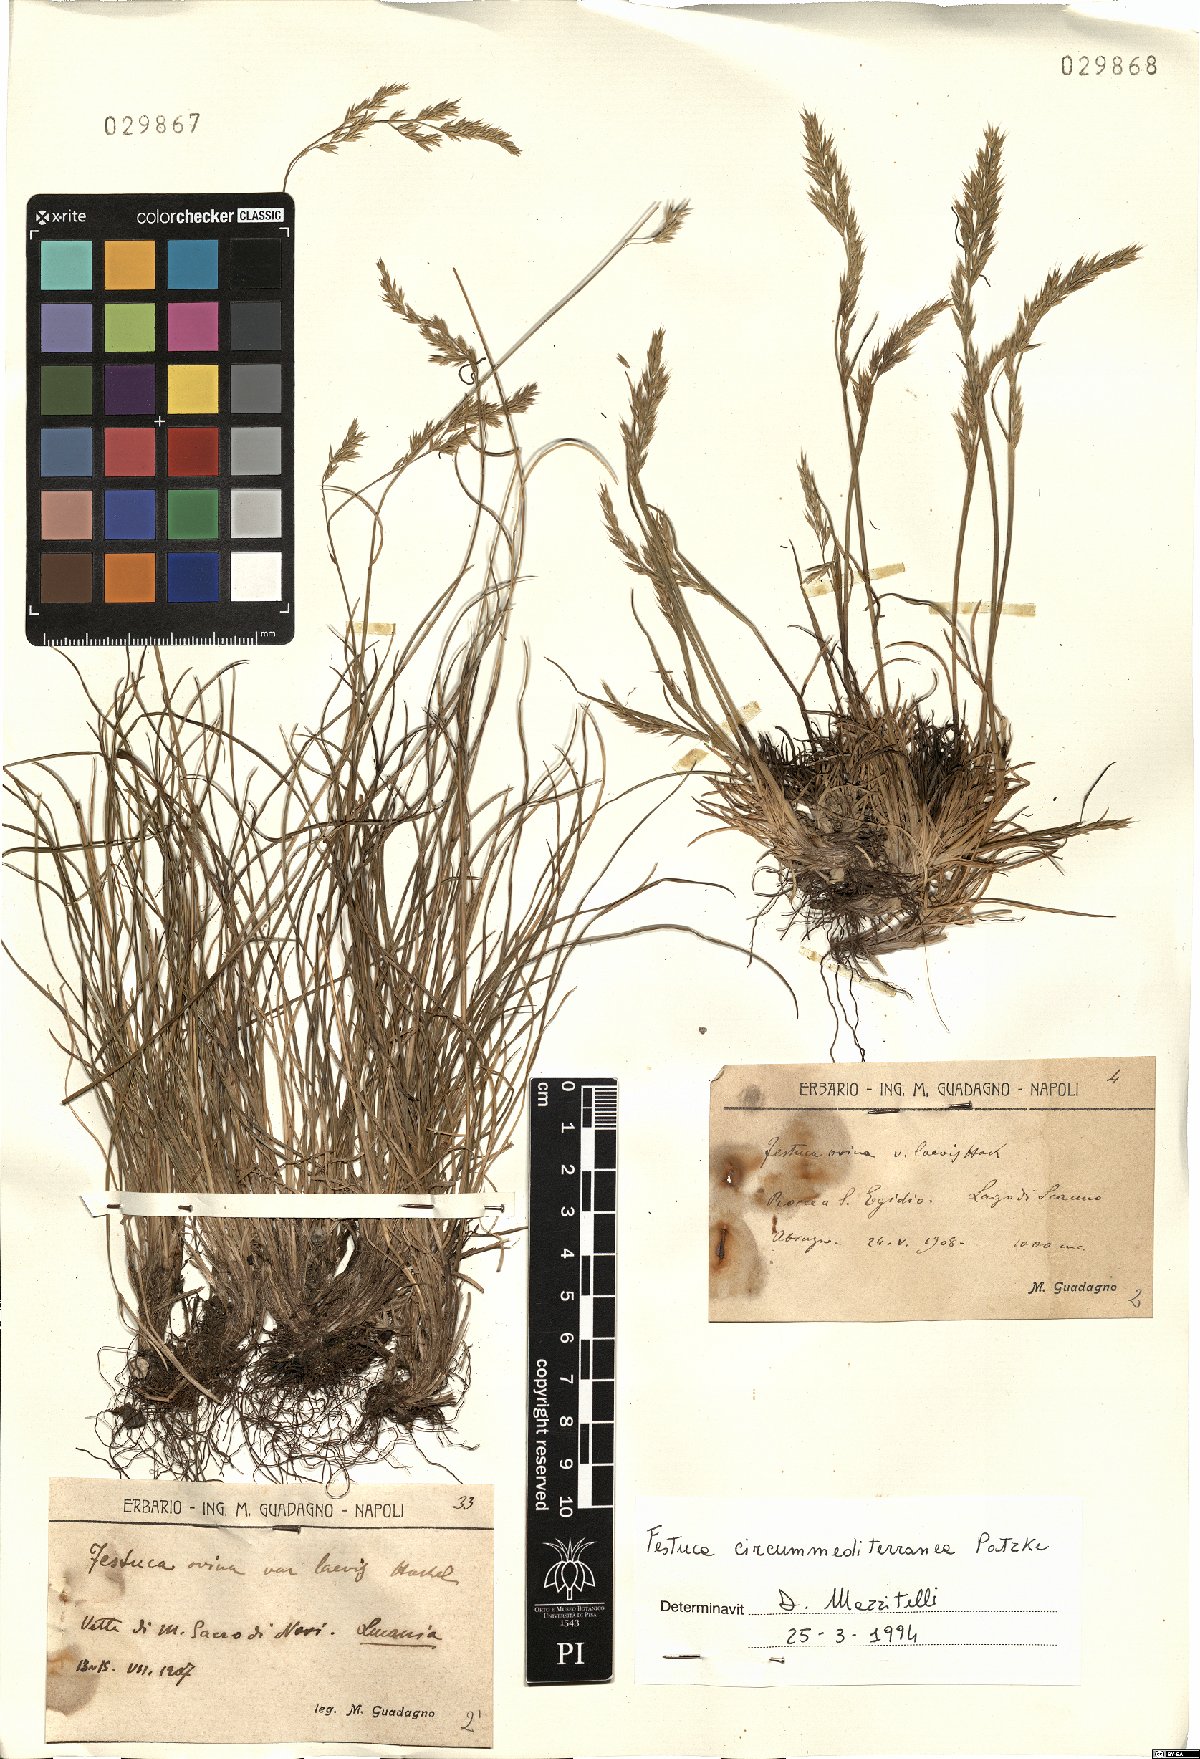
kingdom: Plantae
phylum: Tracheophyta
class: Liliopsida
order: Poales
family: Poaceae
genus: Festuca
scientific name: Festuca circummediterranea
